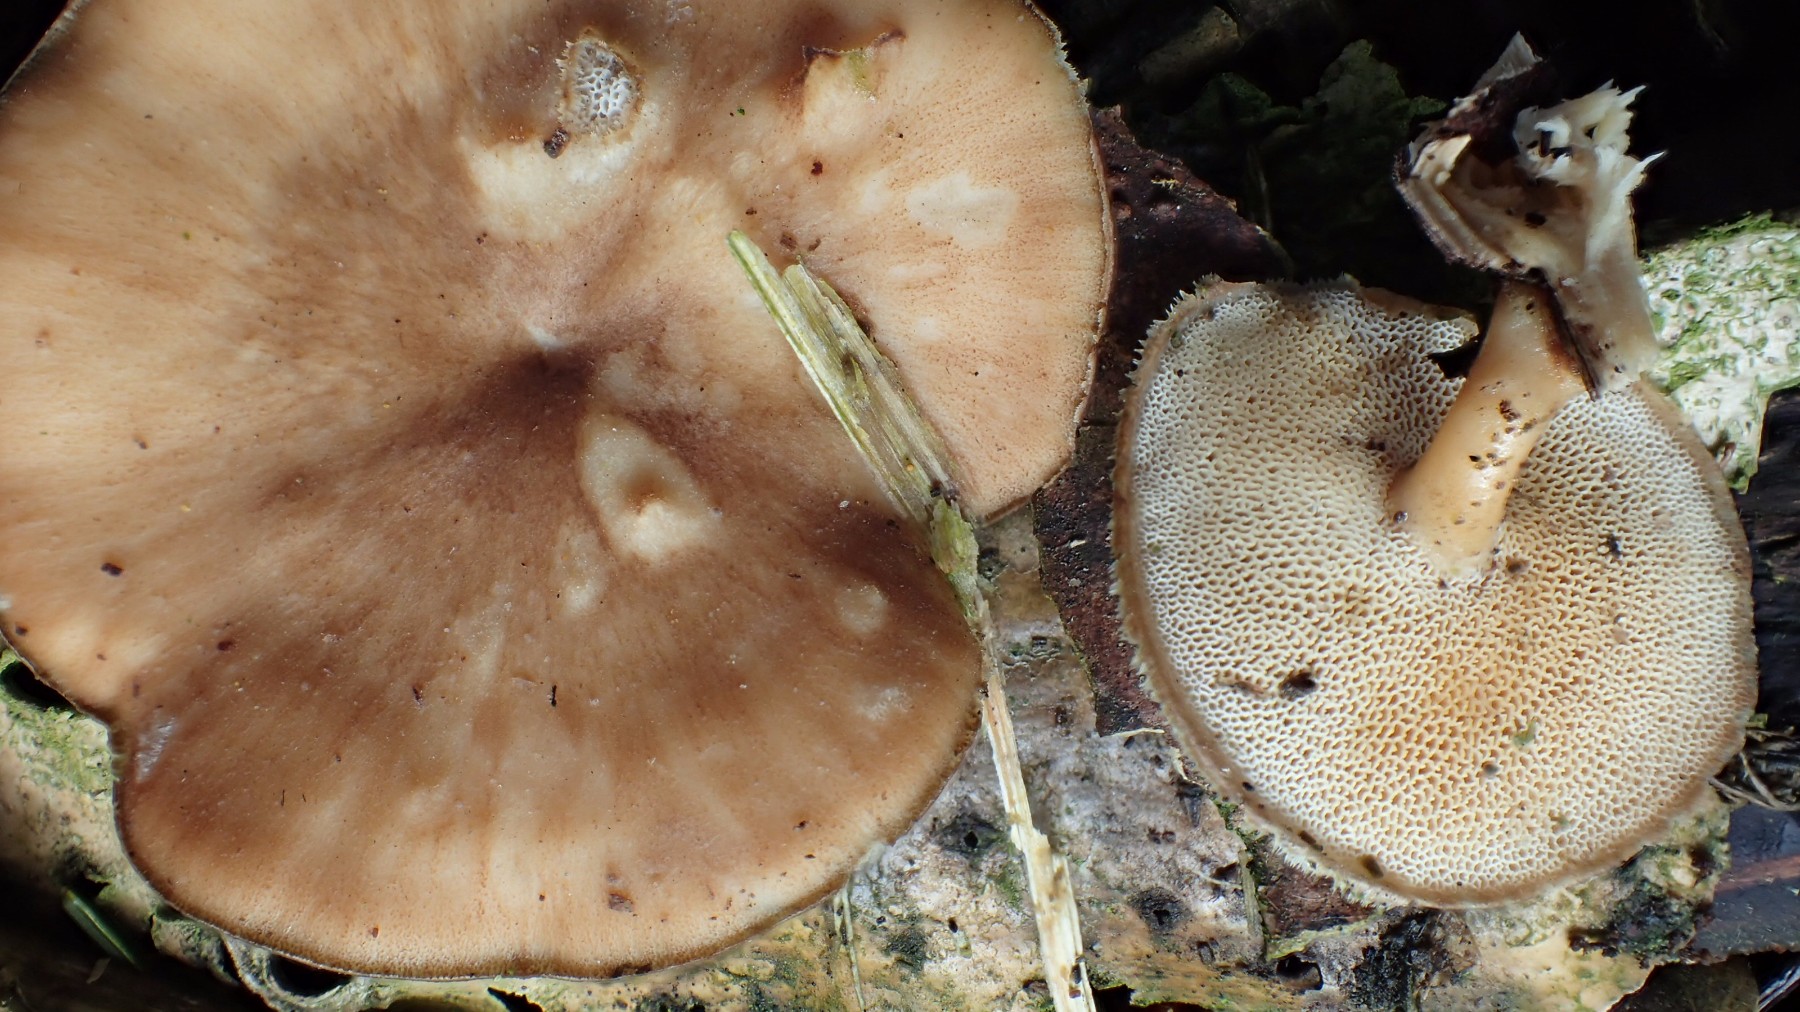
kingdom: Fungi
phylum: Basidiomycota
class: Agaricomycetes
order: Polyporales
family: Polyporaceae
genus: Lentinus
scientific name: Lentinus brumalis
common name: vinter-stilkporesvamp
